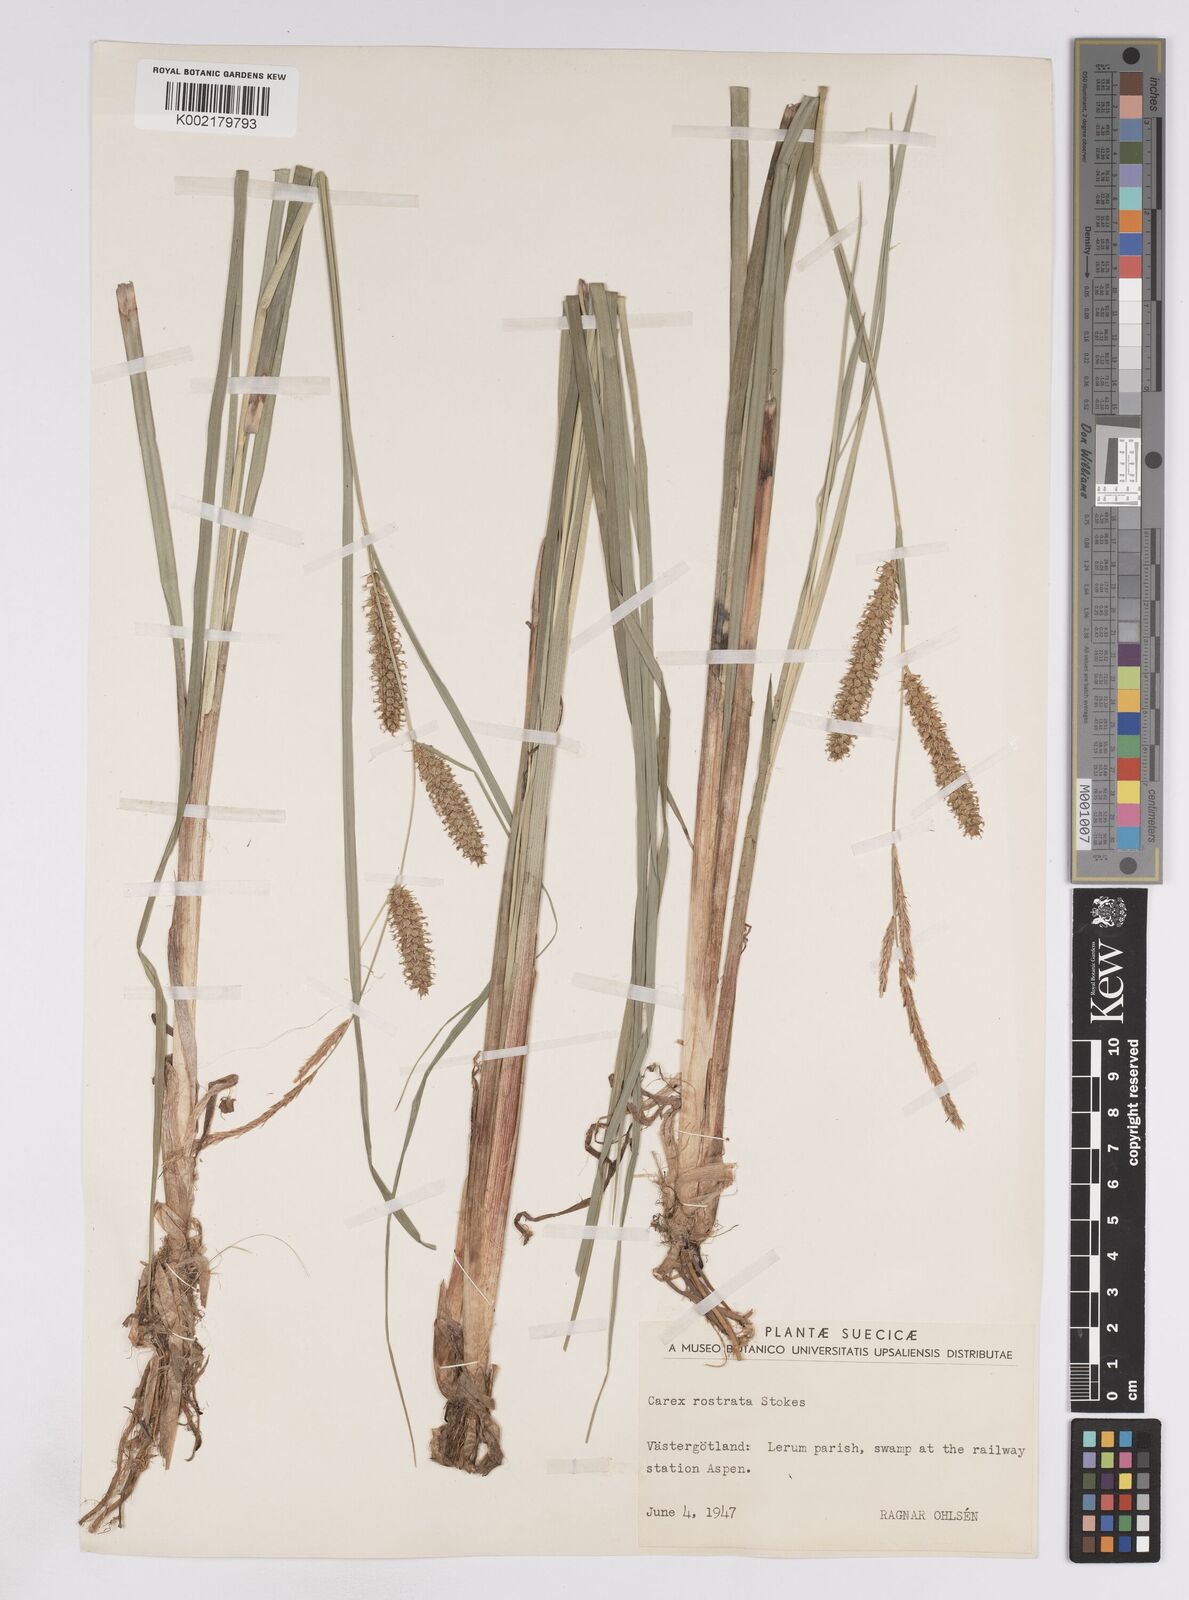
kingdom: Plantae
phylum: Tracheophyta
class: Liliopsida
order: Poales
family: Cyperaceae
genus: Carex
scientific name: Carex rostrata
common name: Bottle sedge
